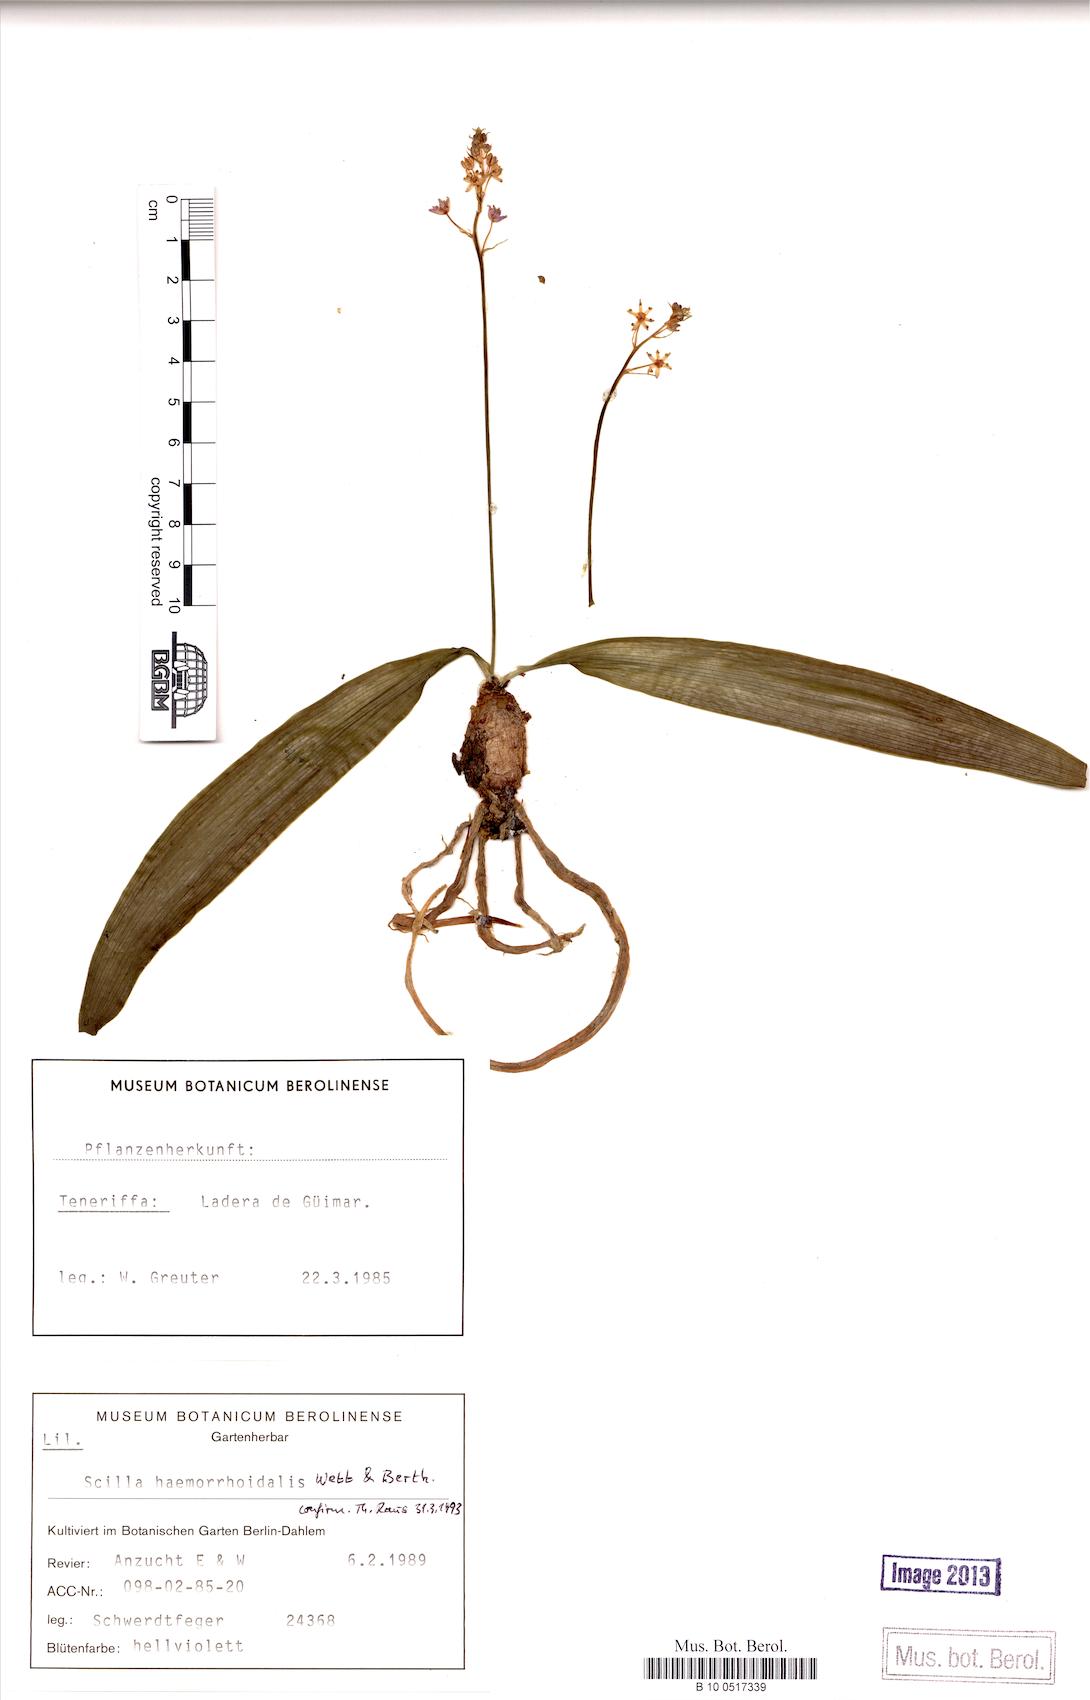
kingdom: Plantae
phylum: Tracheophyta
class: Liliopsida
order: Asparagales
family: Asparagaceae
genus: Scilla
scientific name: Scilla haemorrhoidalis
